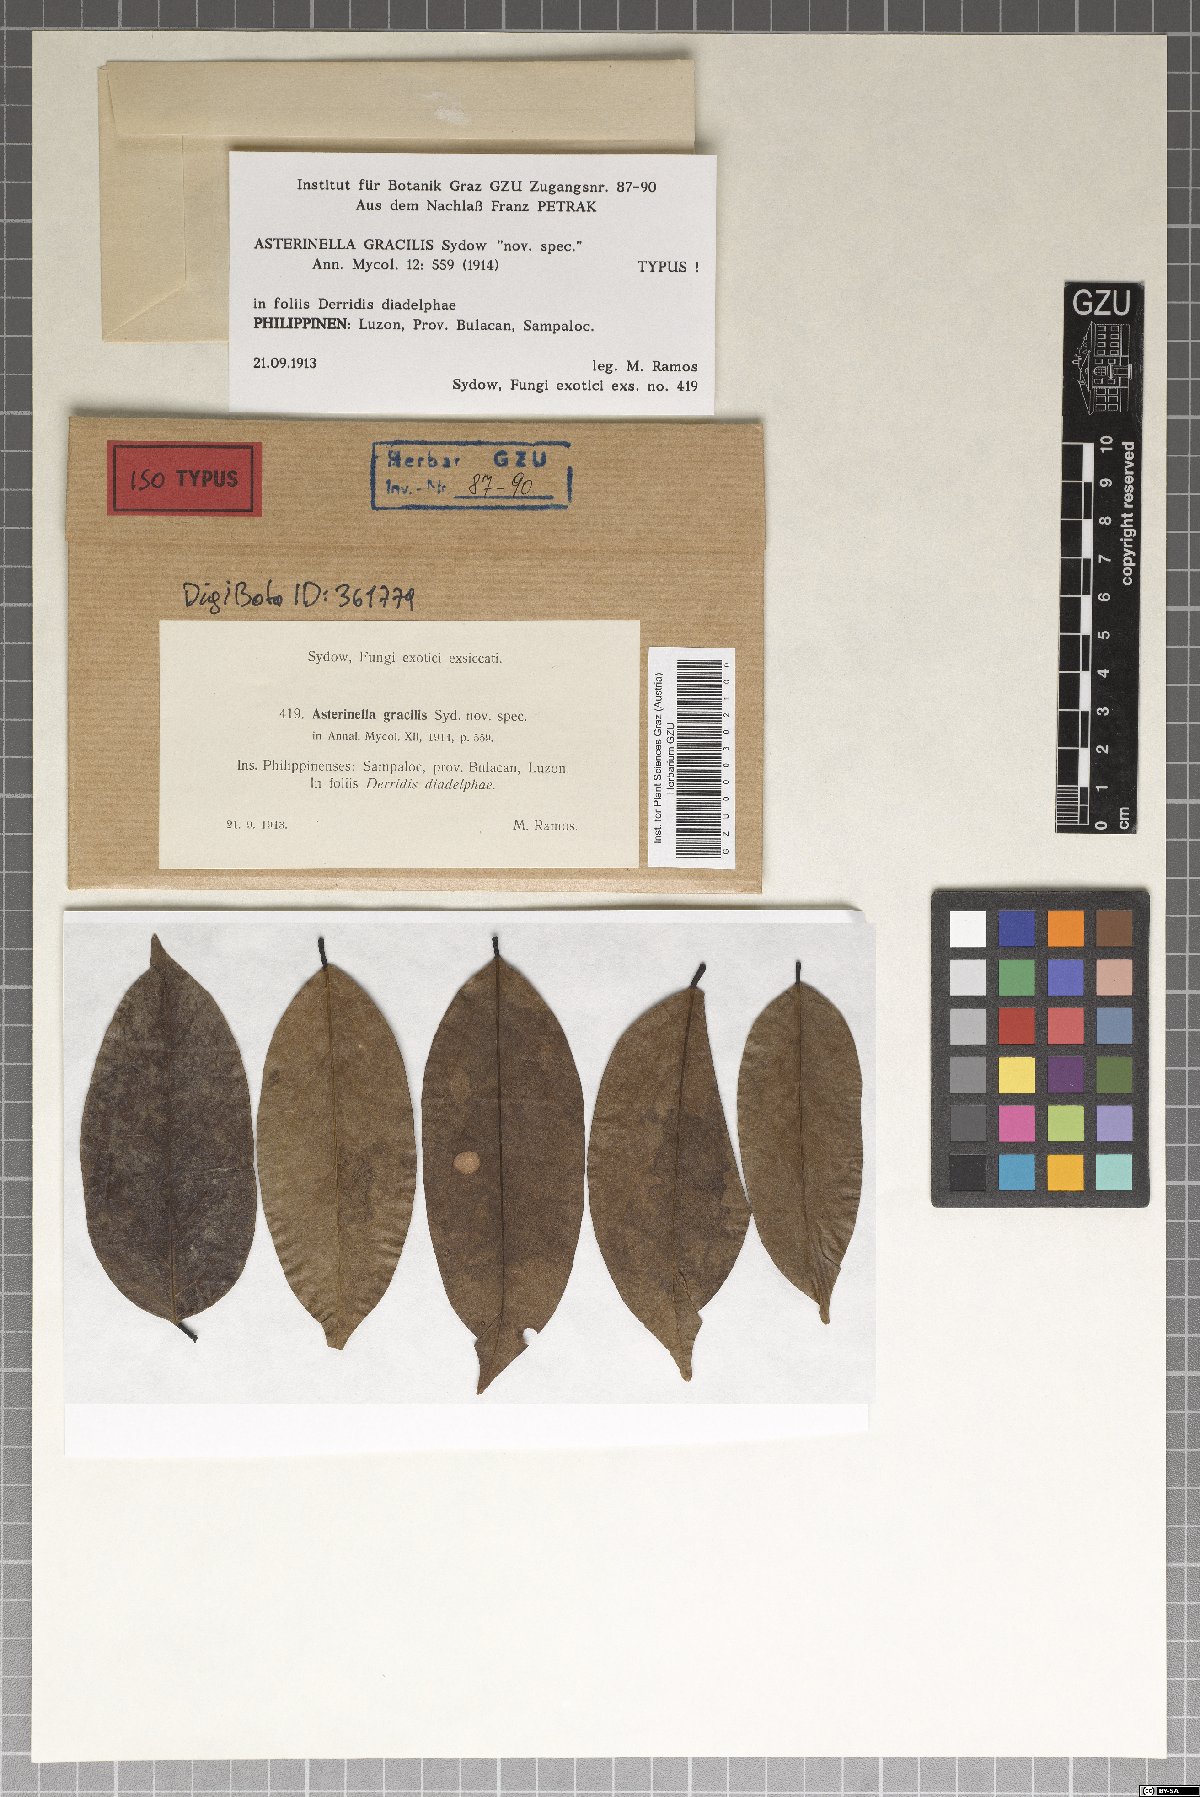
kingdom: Fungi
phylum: Ascomycota
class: Dothideomycetes
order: Asterinales
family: Asterinaceae
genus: Prillieuxina
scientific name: Prillieuxina gracilis
